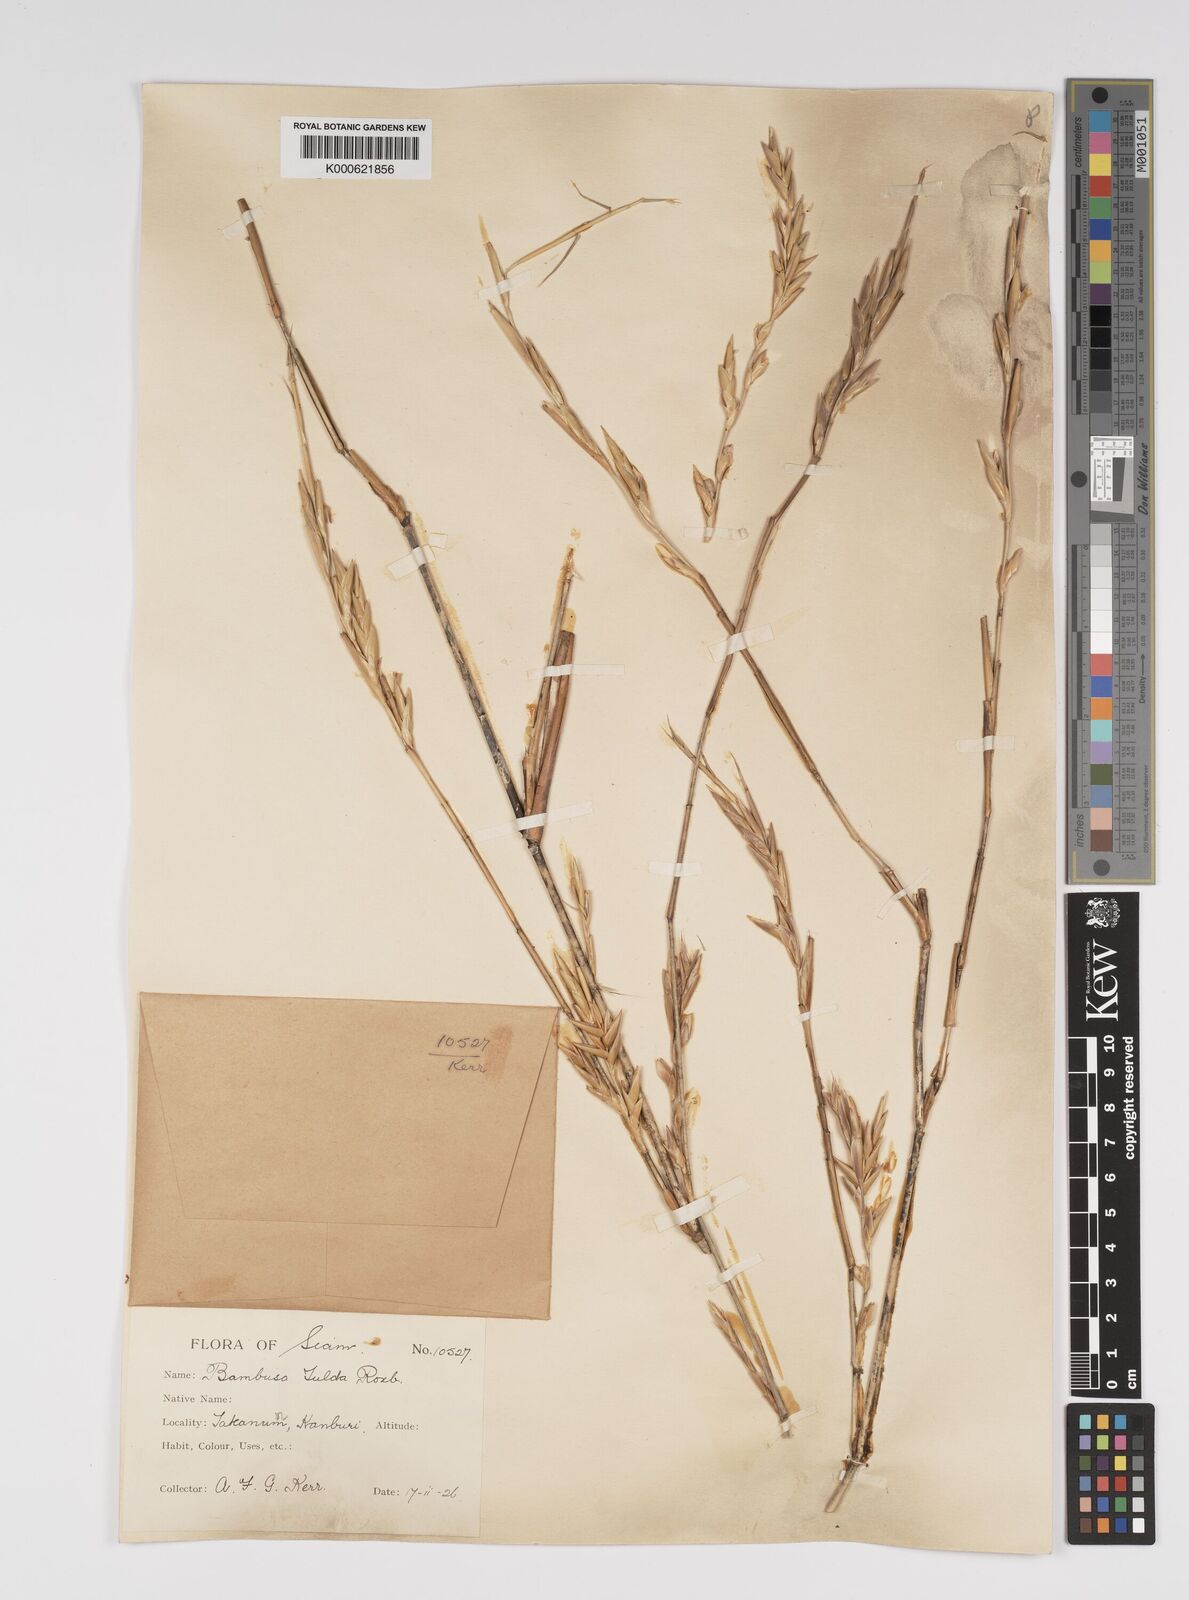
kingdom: Plantae
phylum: Tracheophyta
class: Liliopsida
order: Poales
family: Poaceae
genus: Bambusa
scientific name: Bambusa tulda
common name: Bengal bamboo
